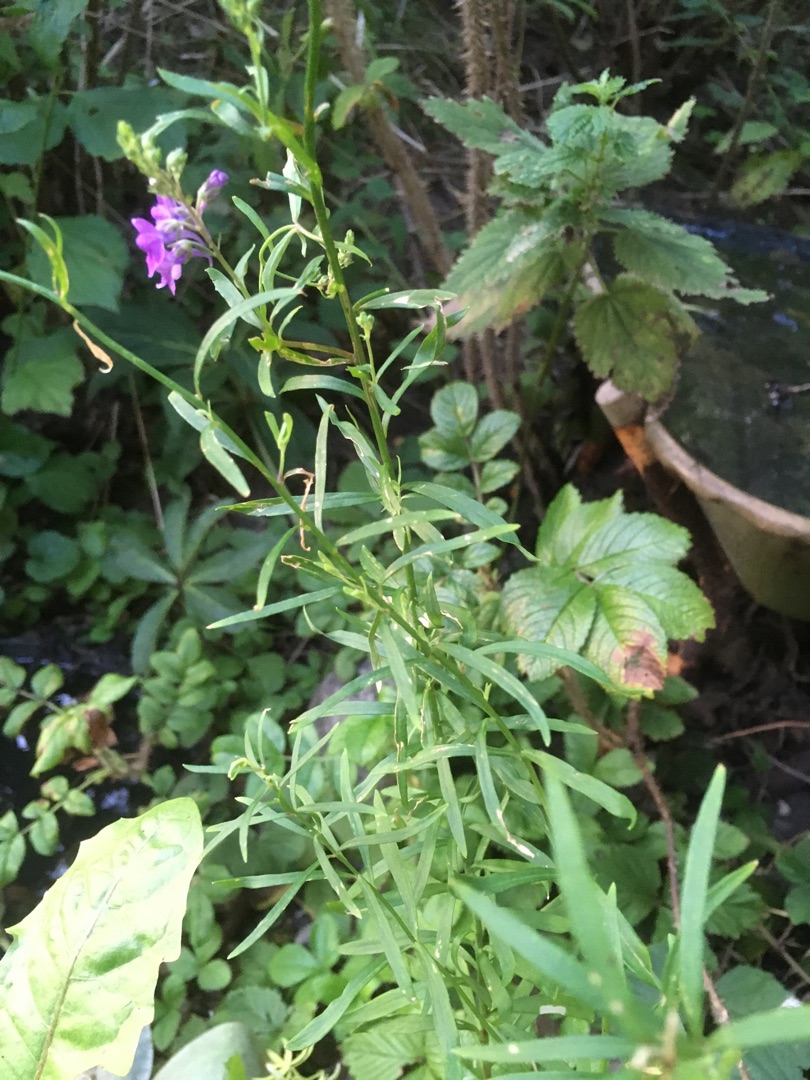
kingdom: Plantae
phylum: Tracheophyta
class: Magnoliopsida
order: Lamiales
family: Plantaginaceae
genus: Linaria
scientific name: Linaria purpurea
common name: Purpur-torskemund
